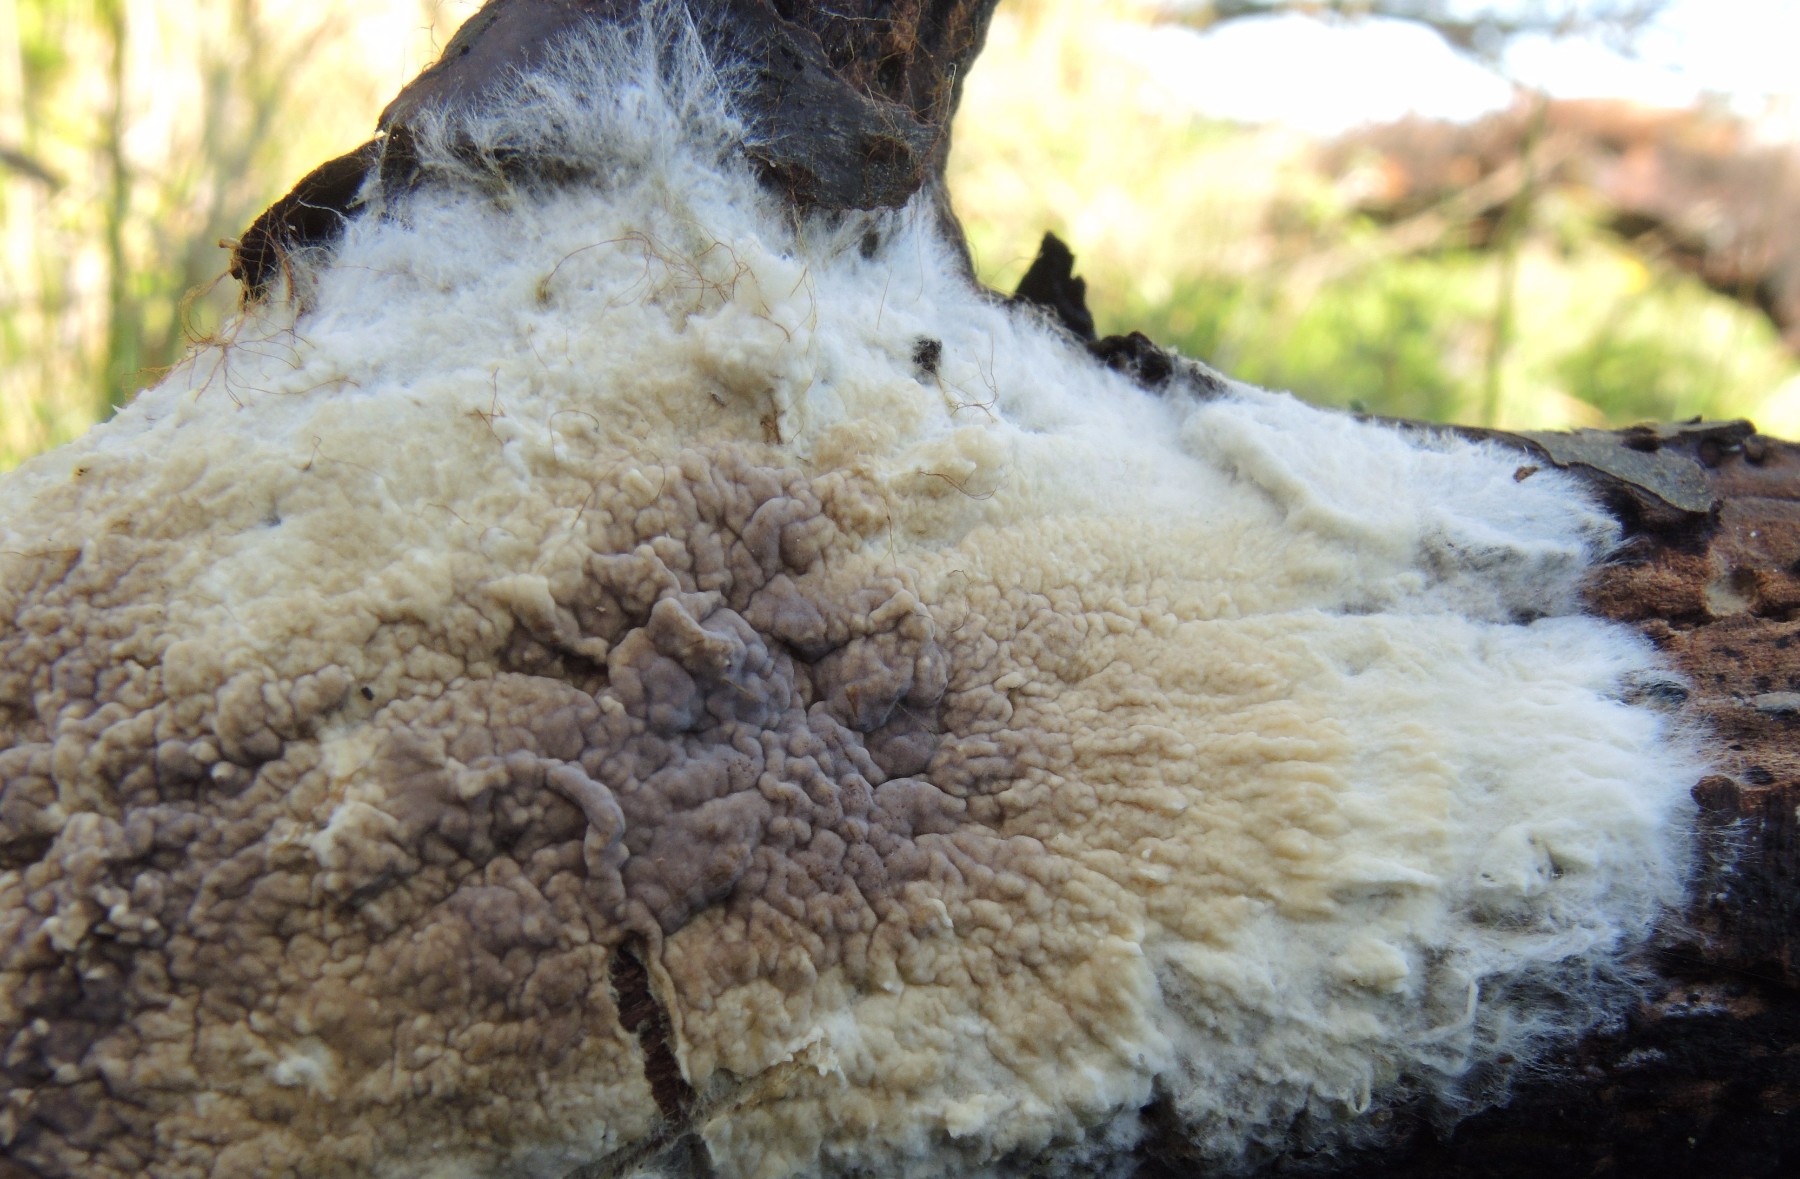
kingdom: Fungi
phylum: Basidiomycota
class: Agaricomycetes
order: Boletales
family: Coniophoraceae
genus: Coniophora
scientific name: Coniophora puteana
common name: gul tømmersvamp
